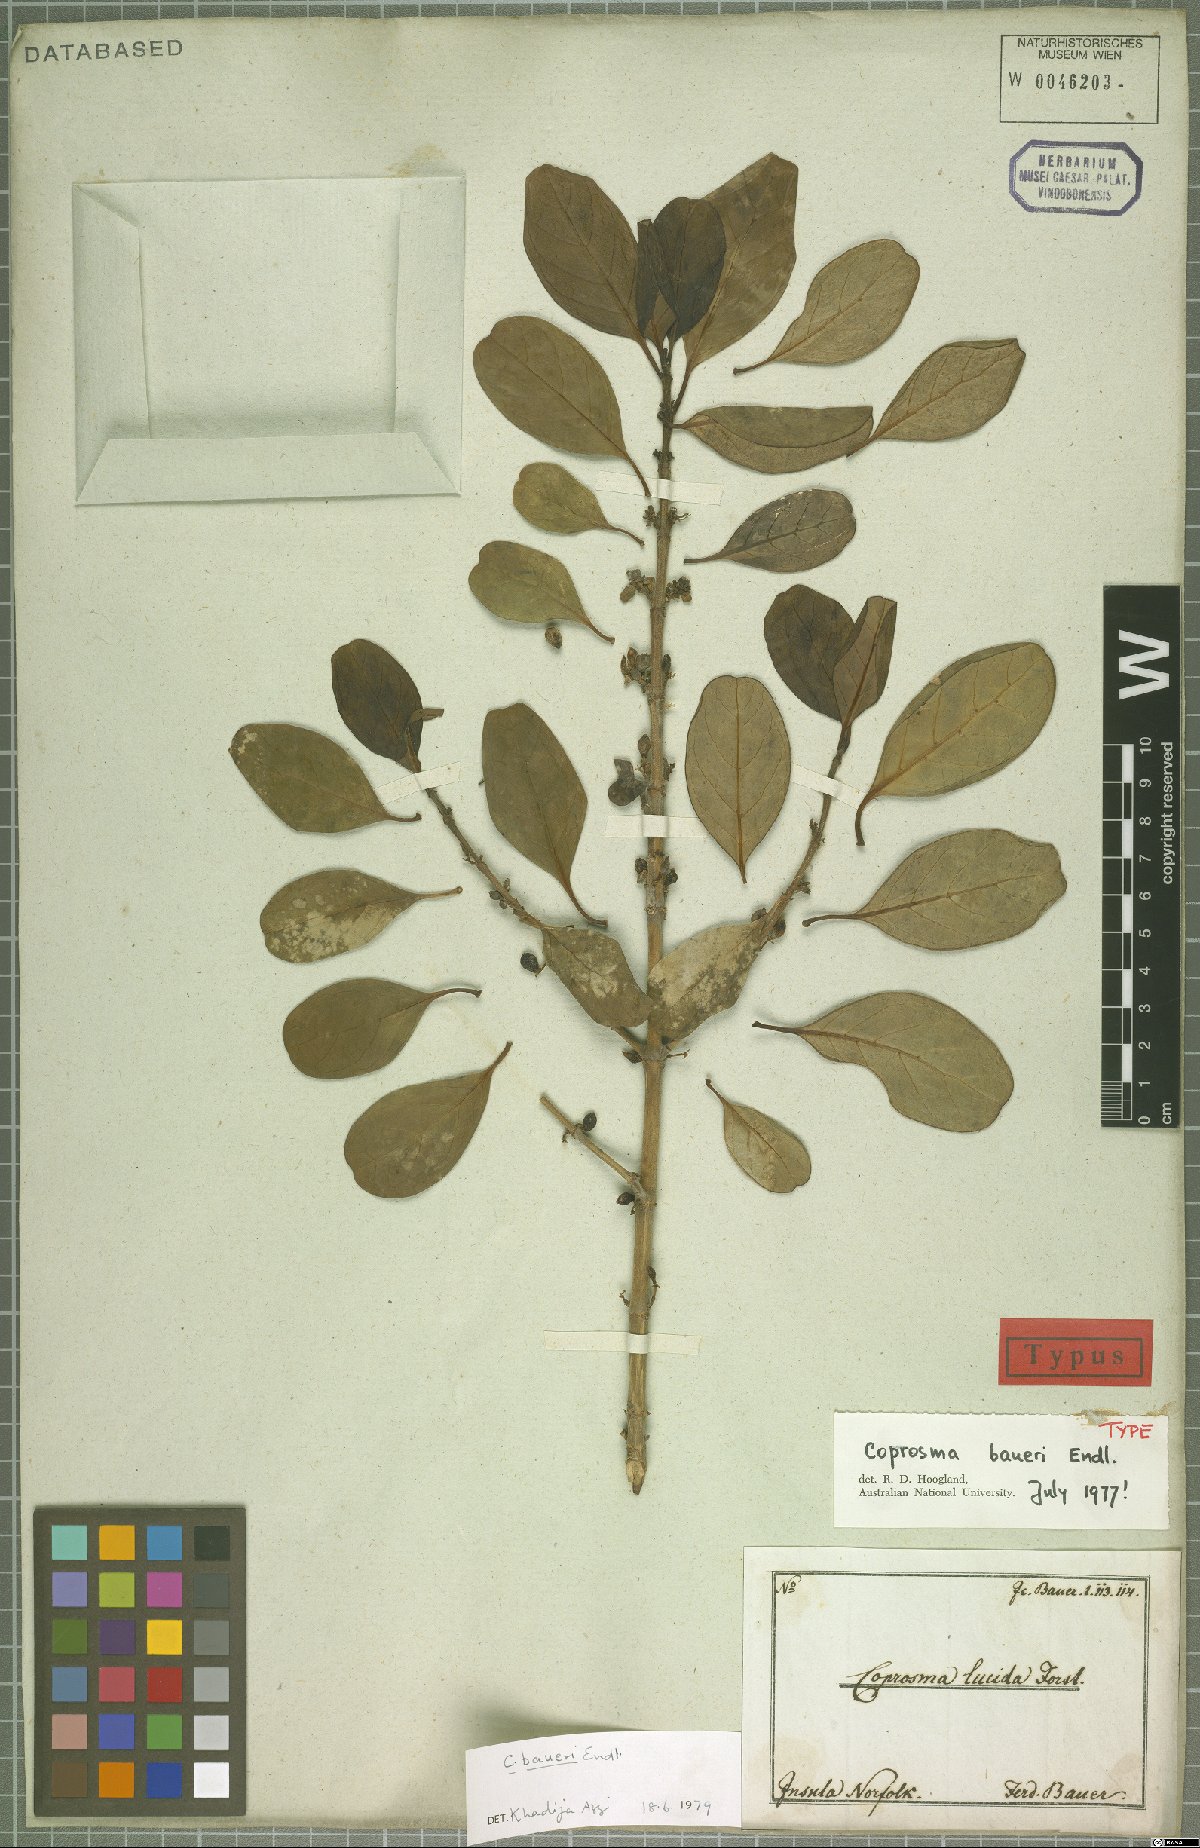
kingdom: Plantae
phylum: Tracheophyta
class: Magnoliopsida
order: Gentianales
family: Rubiaceae
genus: Coprosma
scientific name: Coprosma baueri
